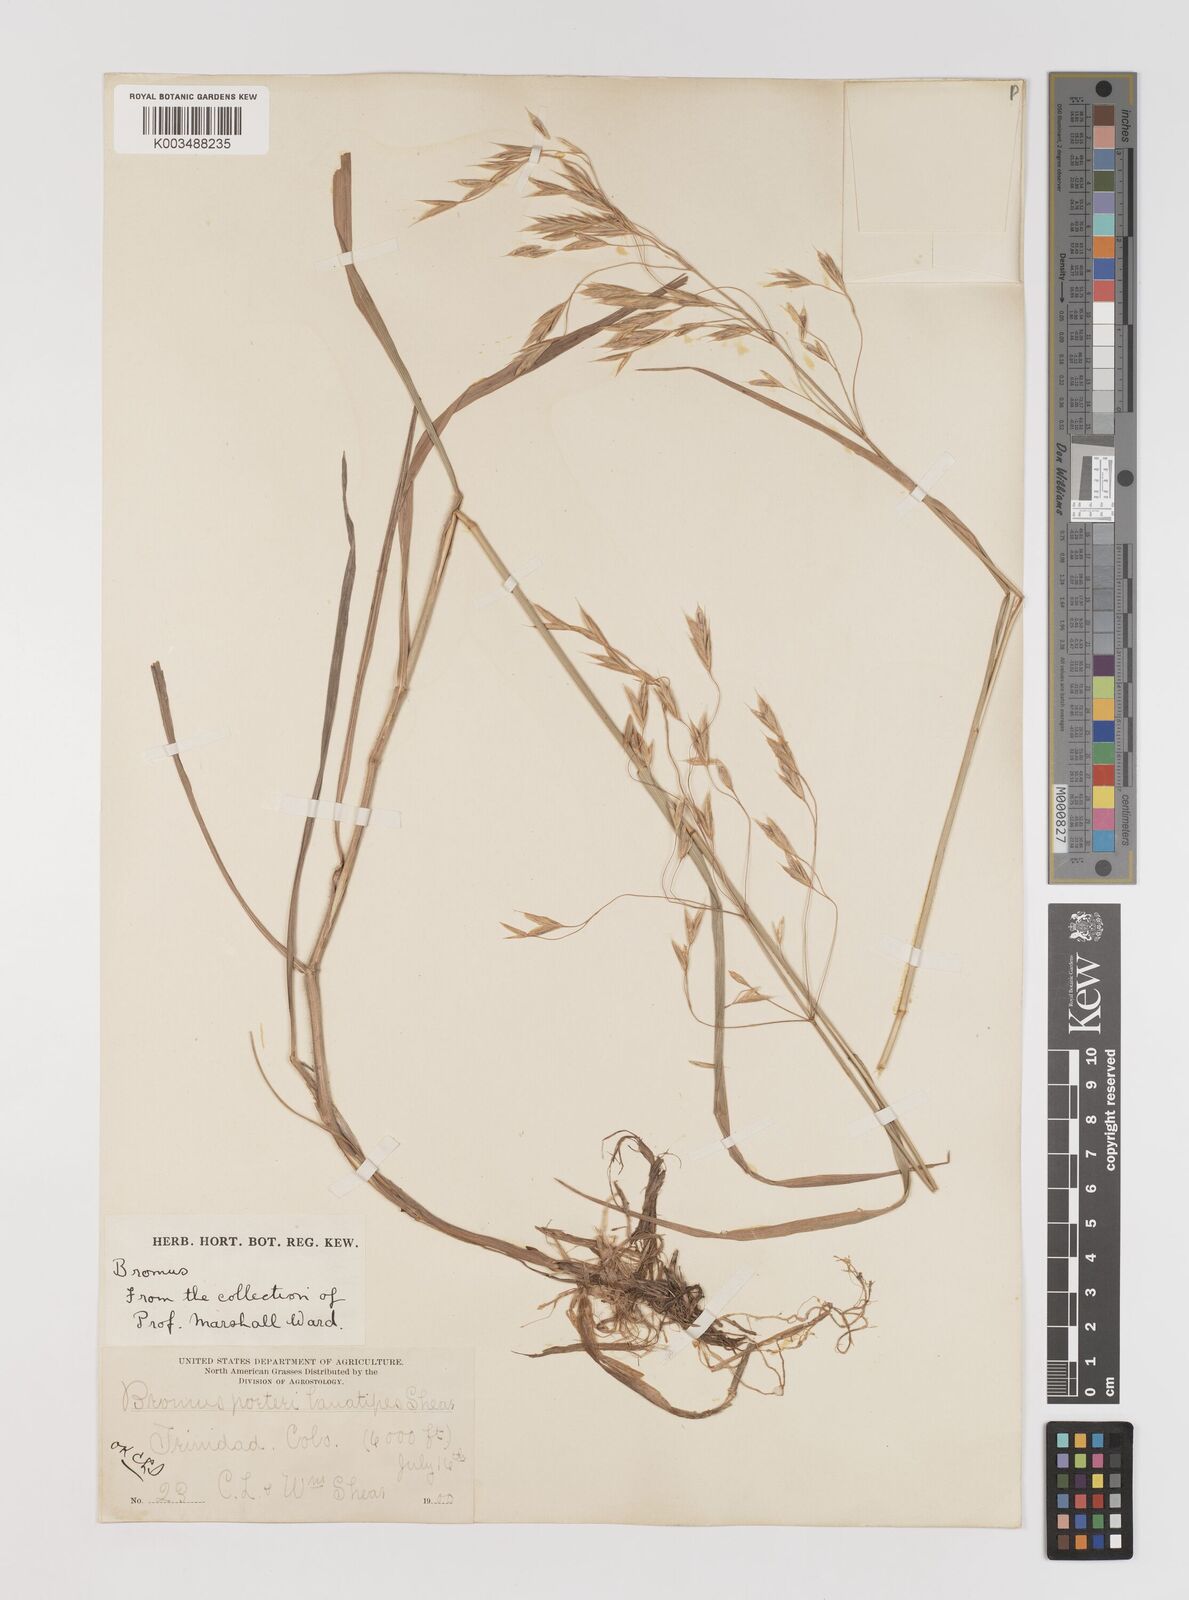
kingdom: Plantae
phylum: Tracheophyta
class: Liliopsida
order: Poales
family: Poaceae
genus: Bromus
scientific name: Bromus porteri
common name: Nodding brome
